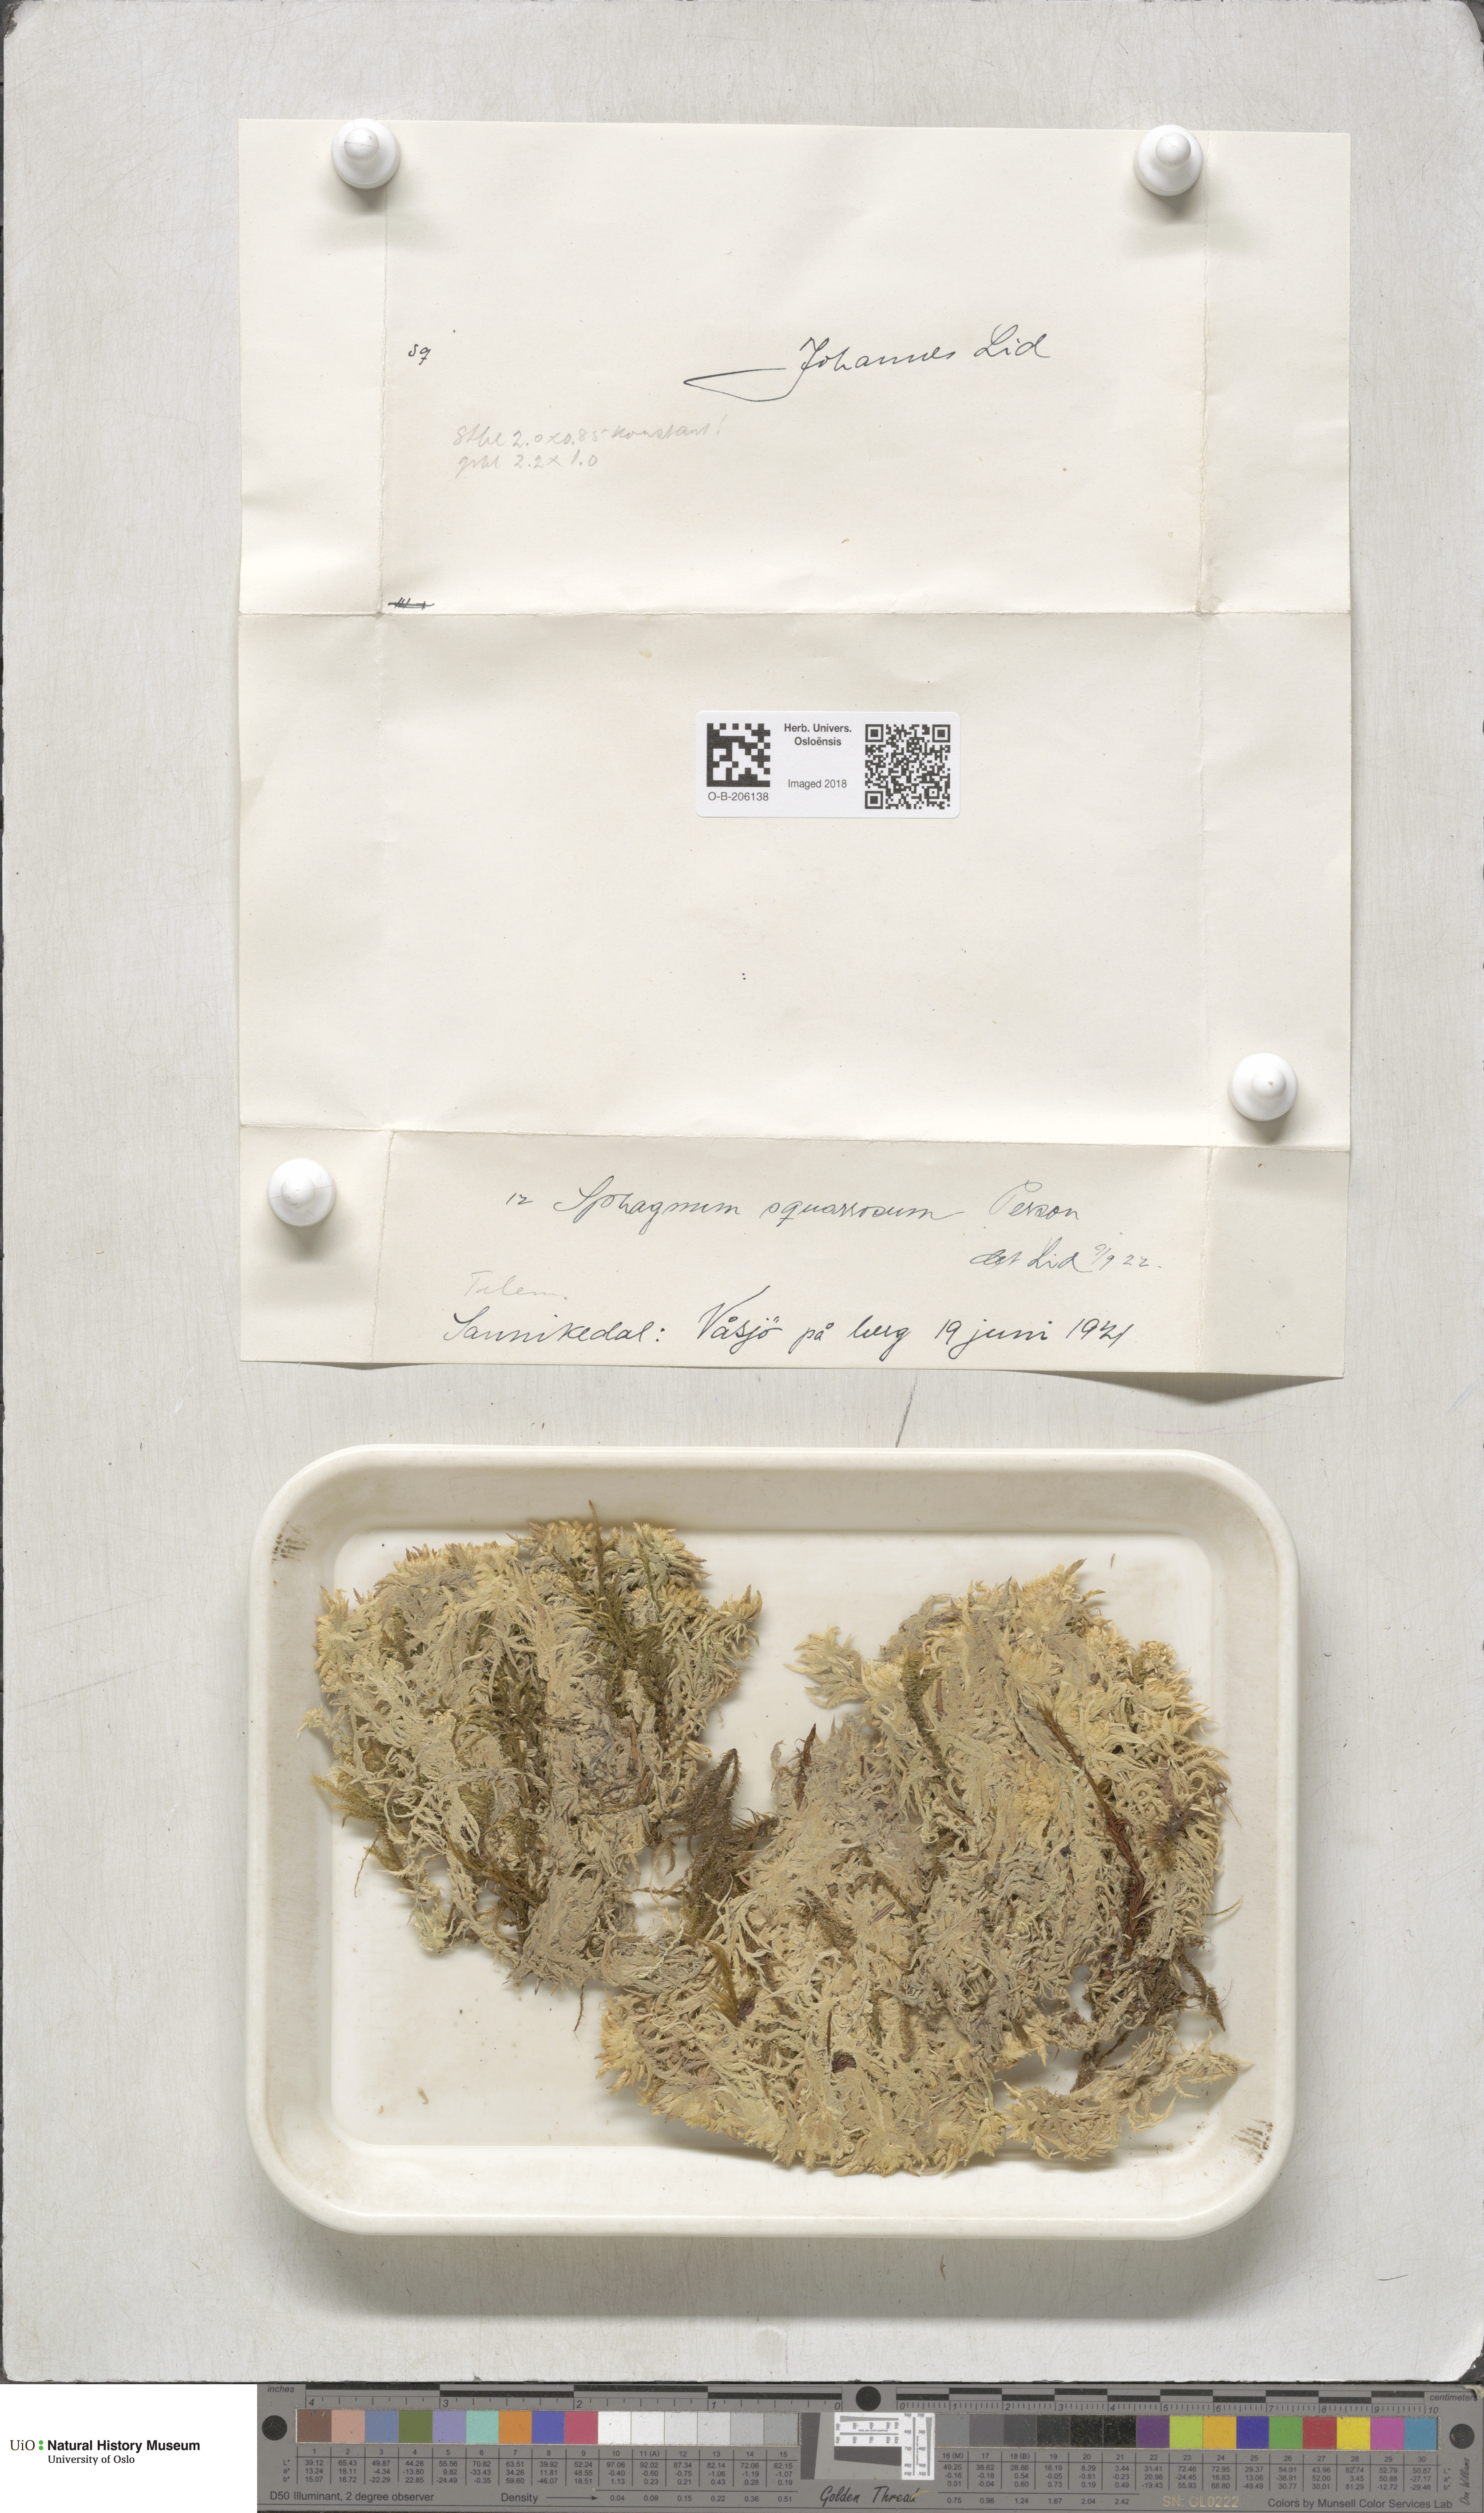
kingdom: Plantae
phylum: Bryophyta
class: Sphagnopsida
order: Sphagnales
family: Sphagnaceae
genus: Sphagnum
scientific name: Sphagnum squarrosum
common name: Shaggy peat moss
